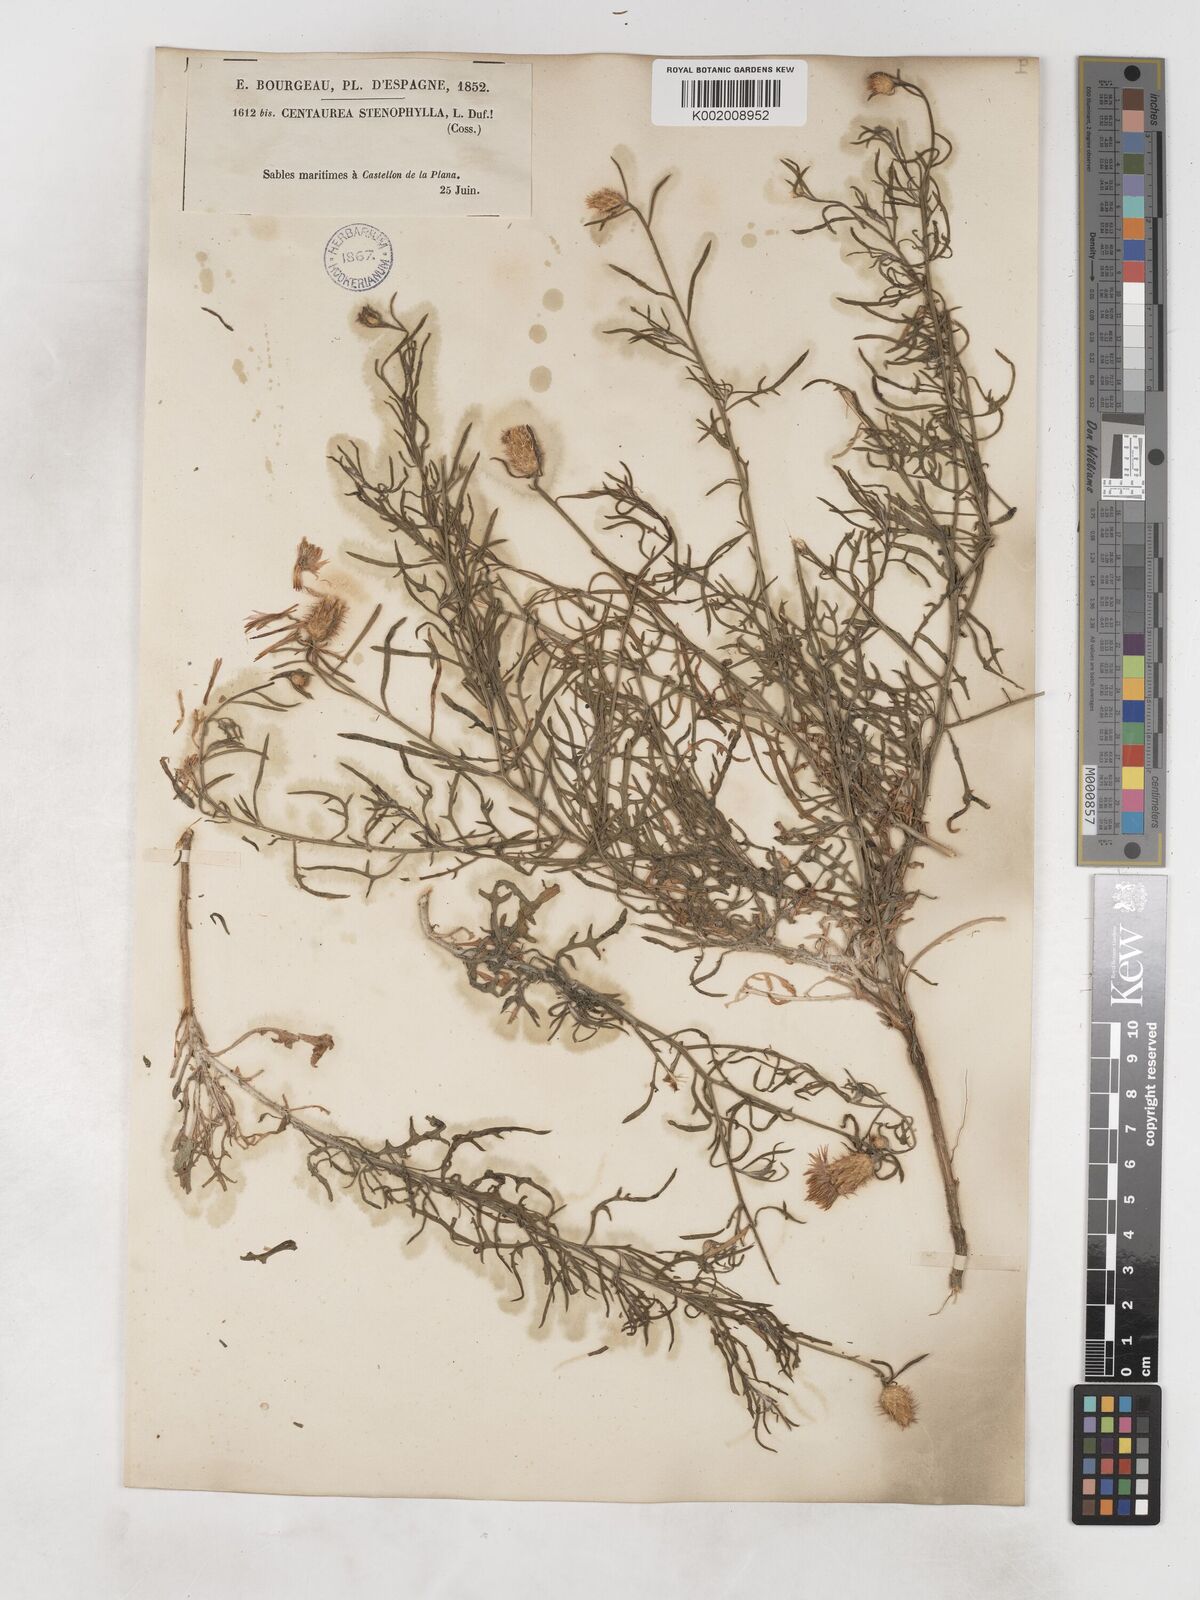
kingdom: Plantae
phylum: Tracheophyta
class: Magnoliopsida
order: Asterales
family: Asteraceae
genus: Centaurea
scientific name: Centaurea aspera
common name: Rough star-thistle
